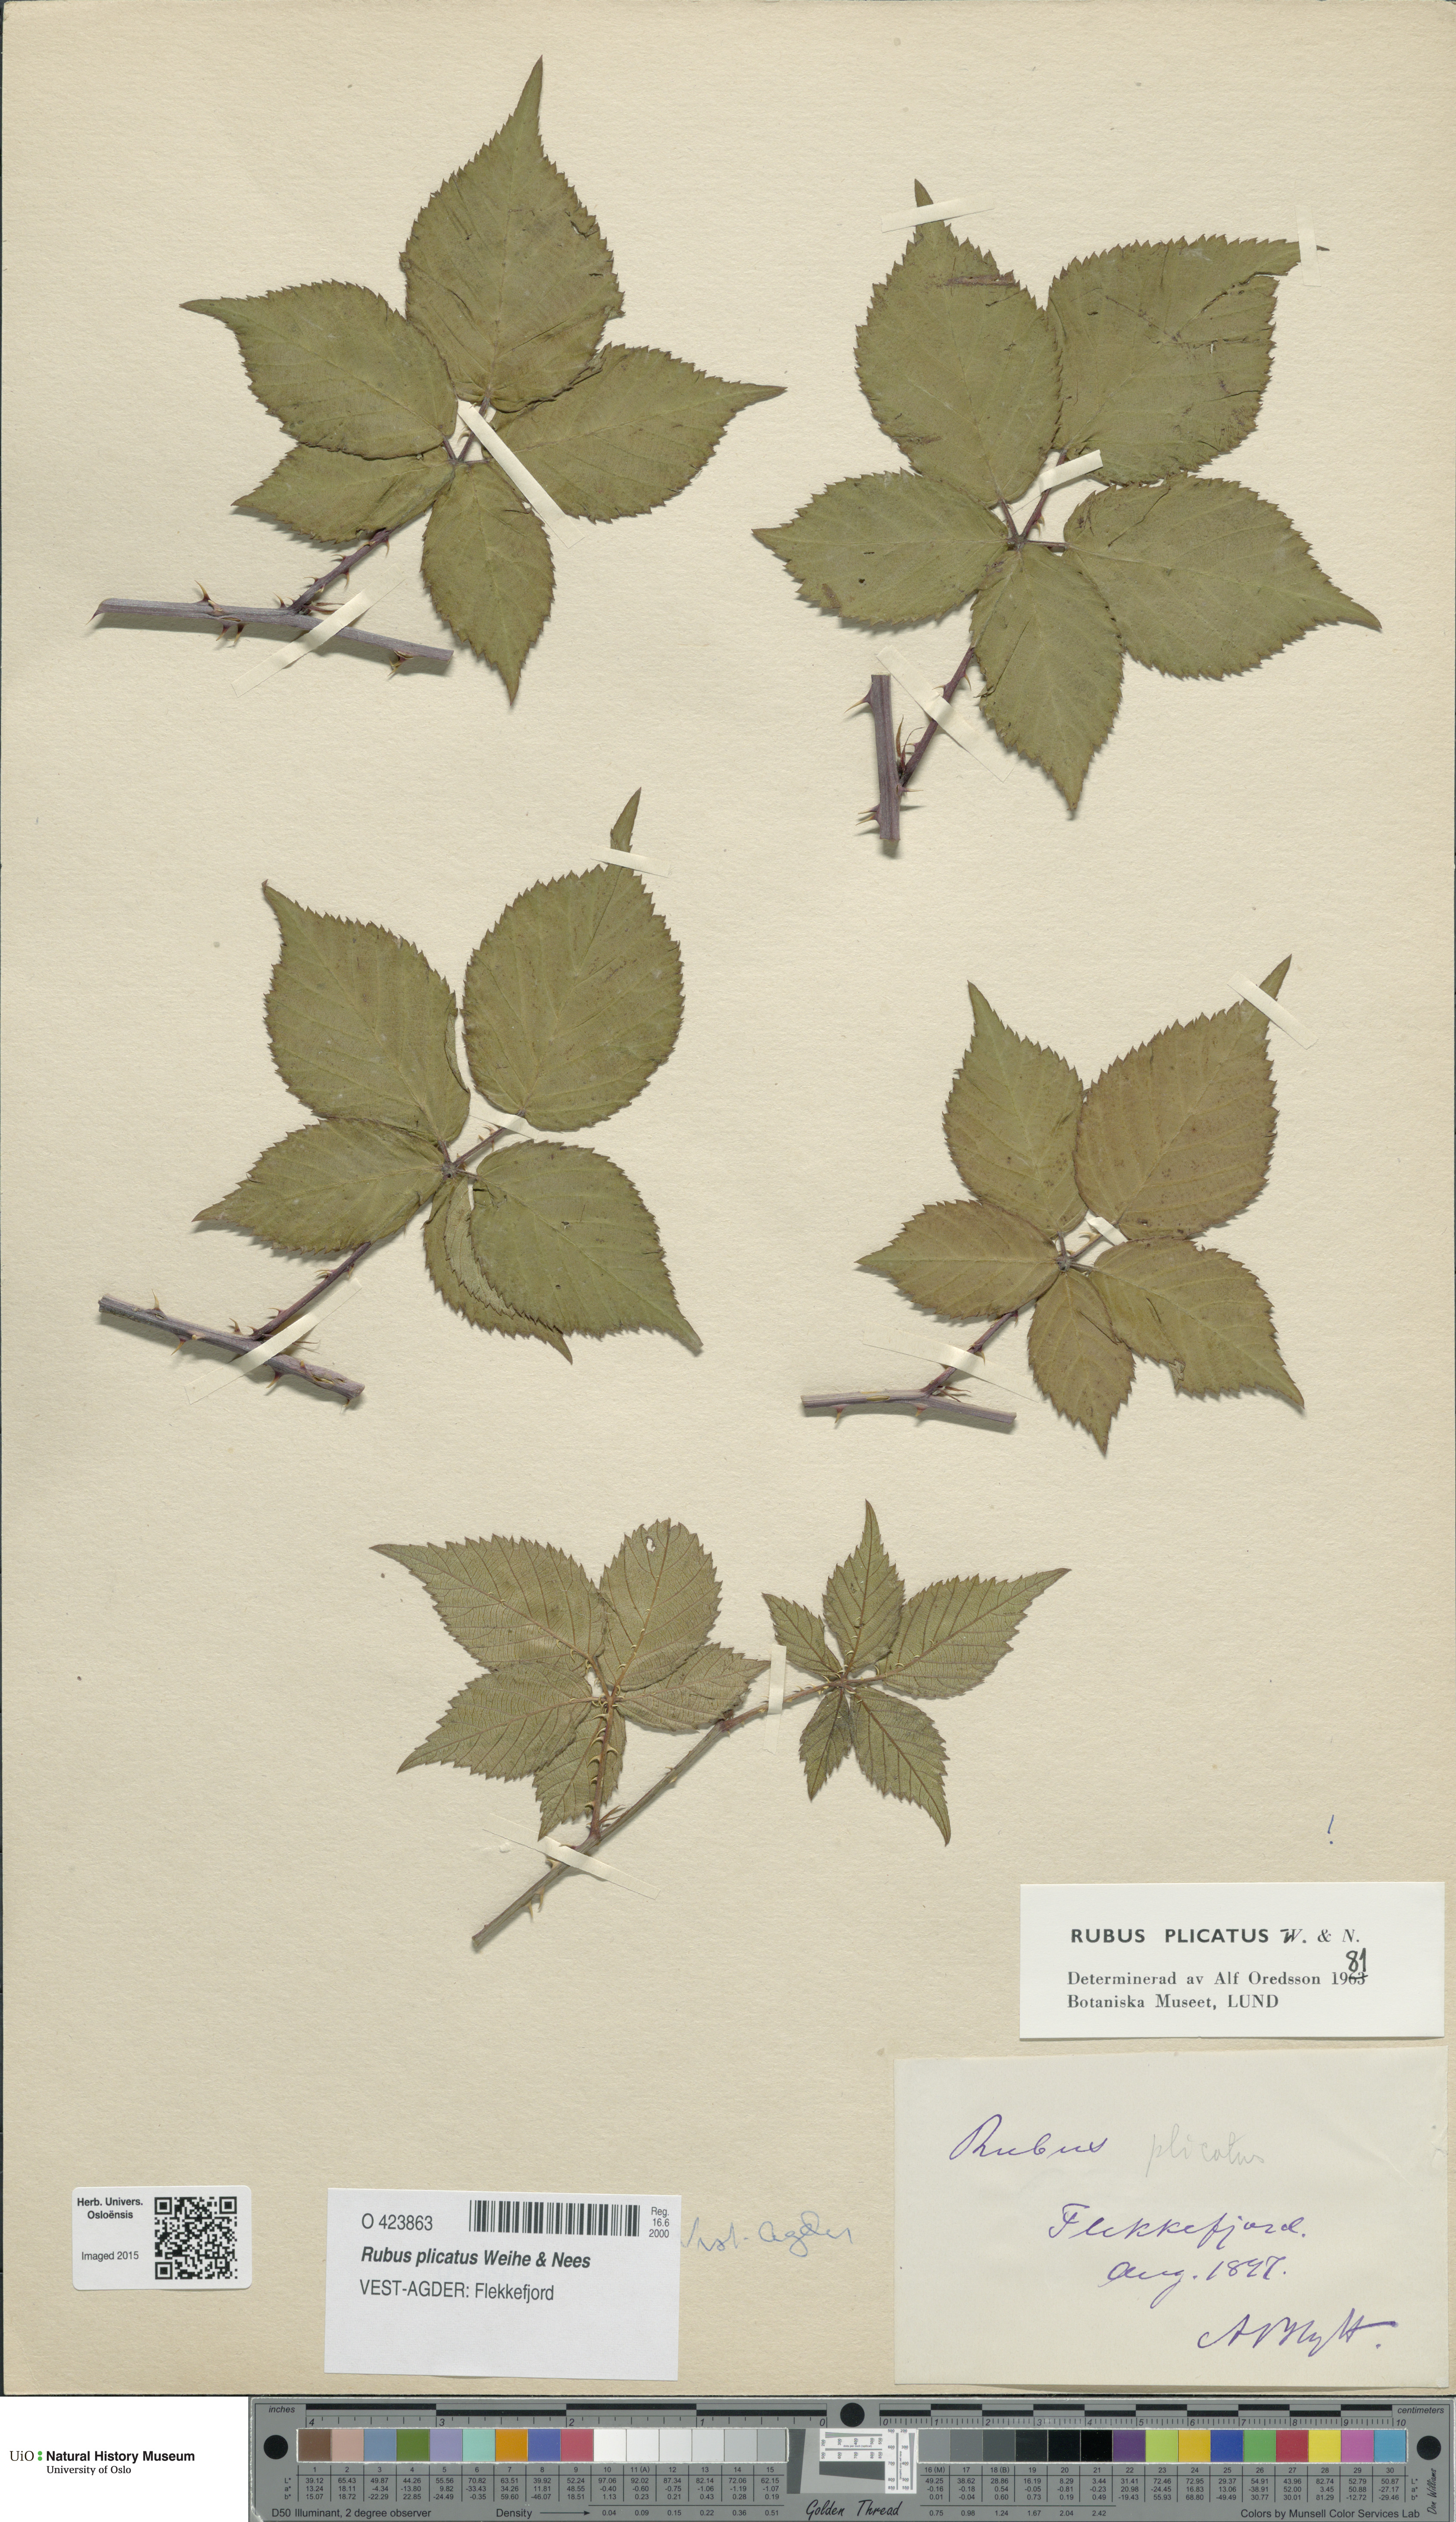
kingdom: Plantae
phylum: Tracheophyta
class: Magnoliopsida
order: Rosales
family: Rosaceae
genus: Rubus
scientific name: Rubus fruticosus
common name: Blackberry, bramble
